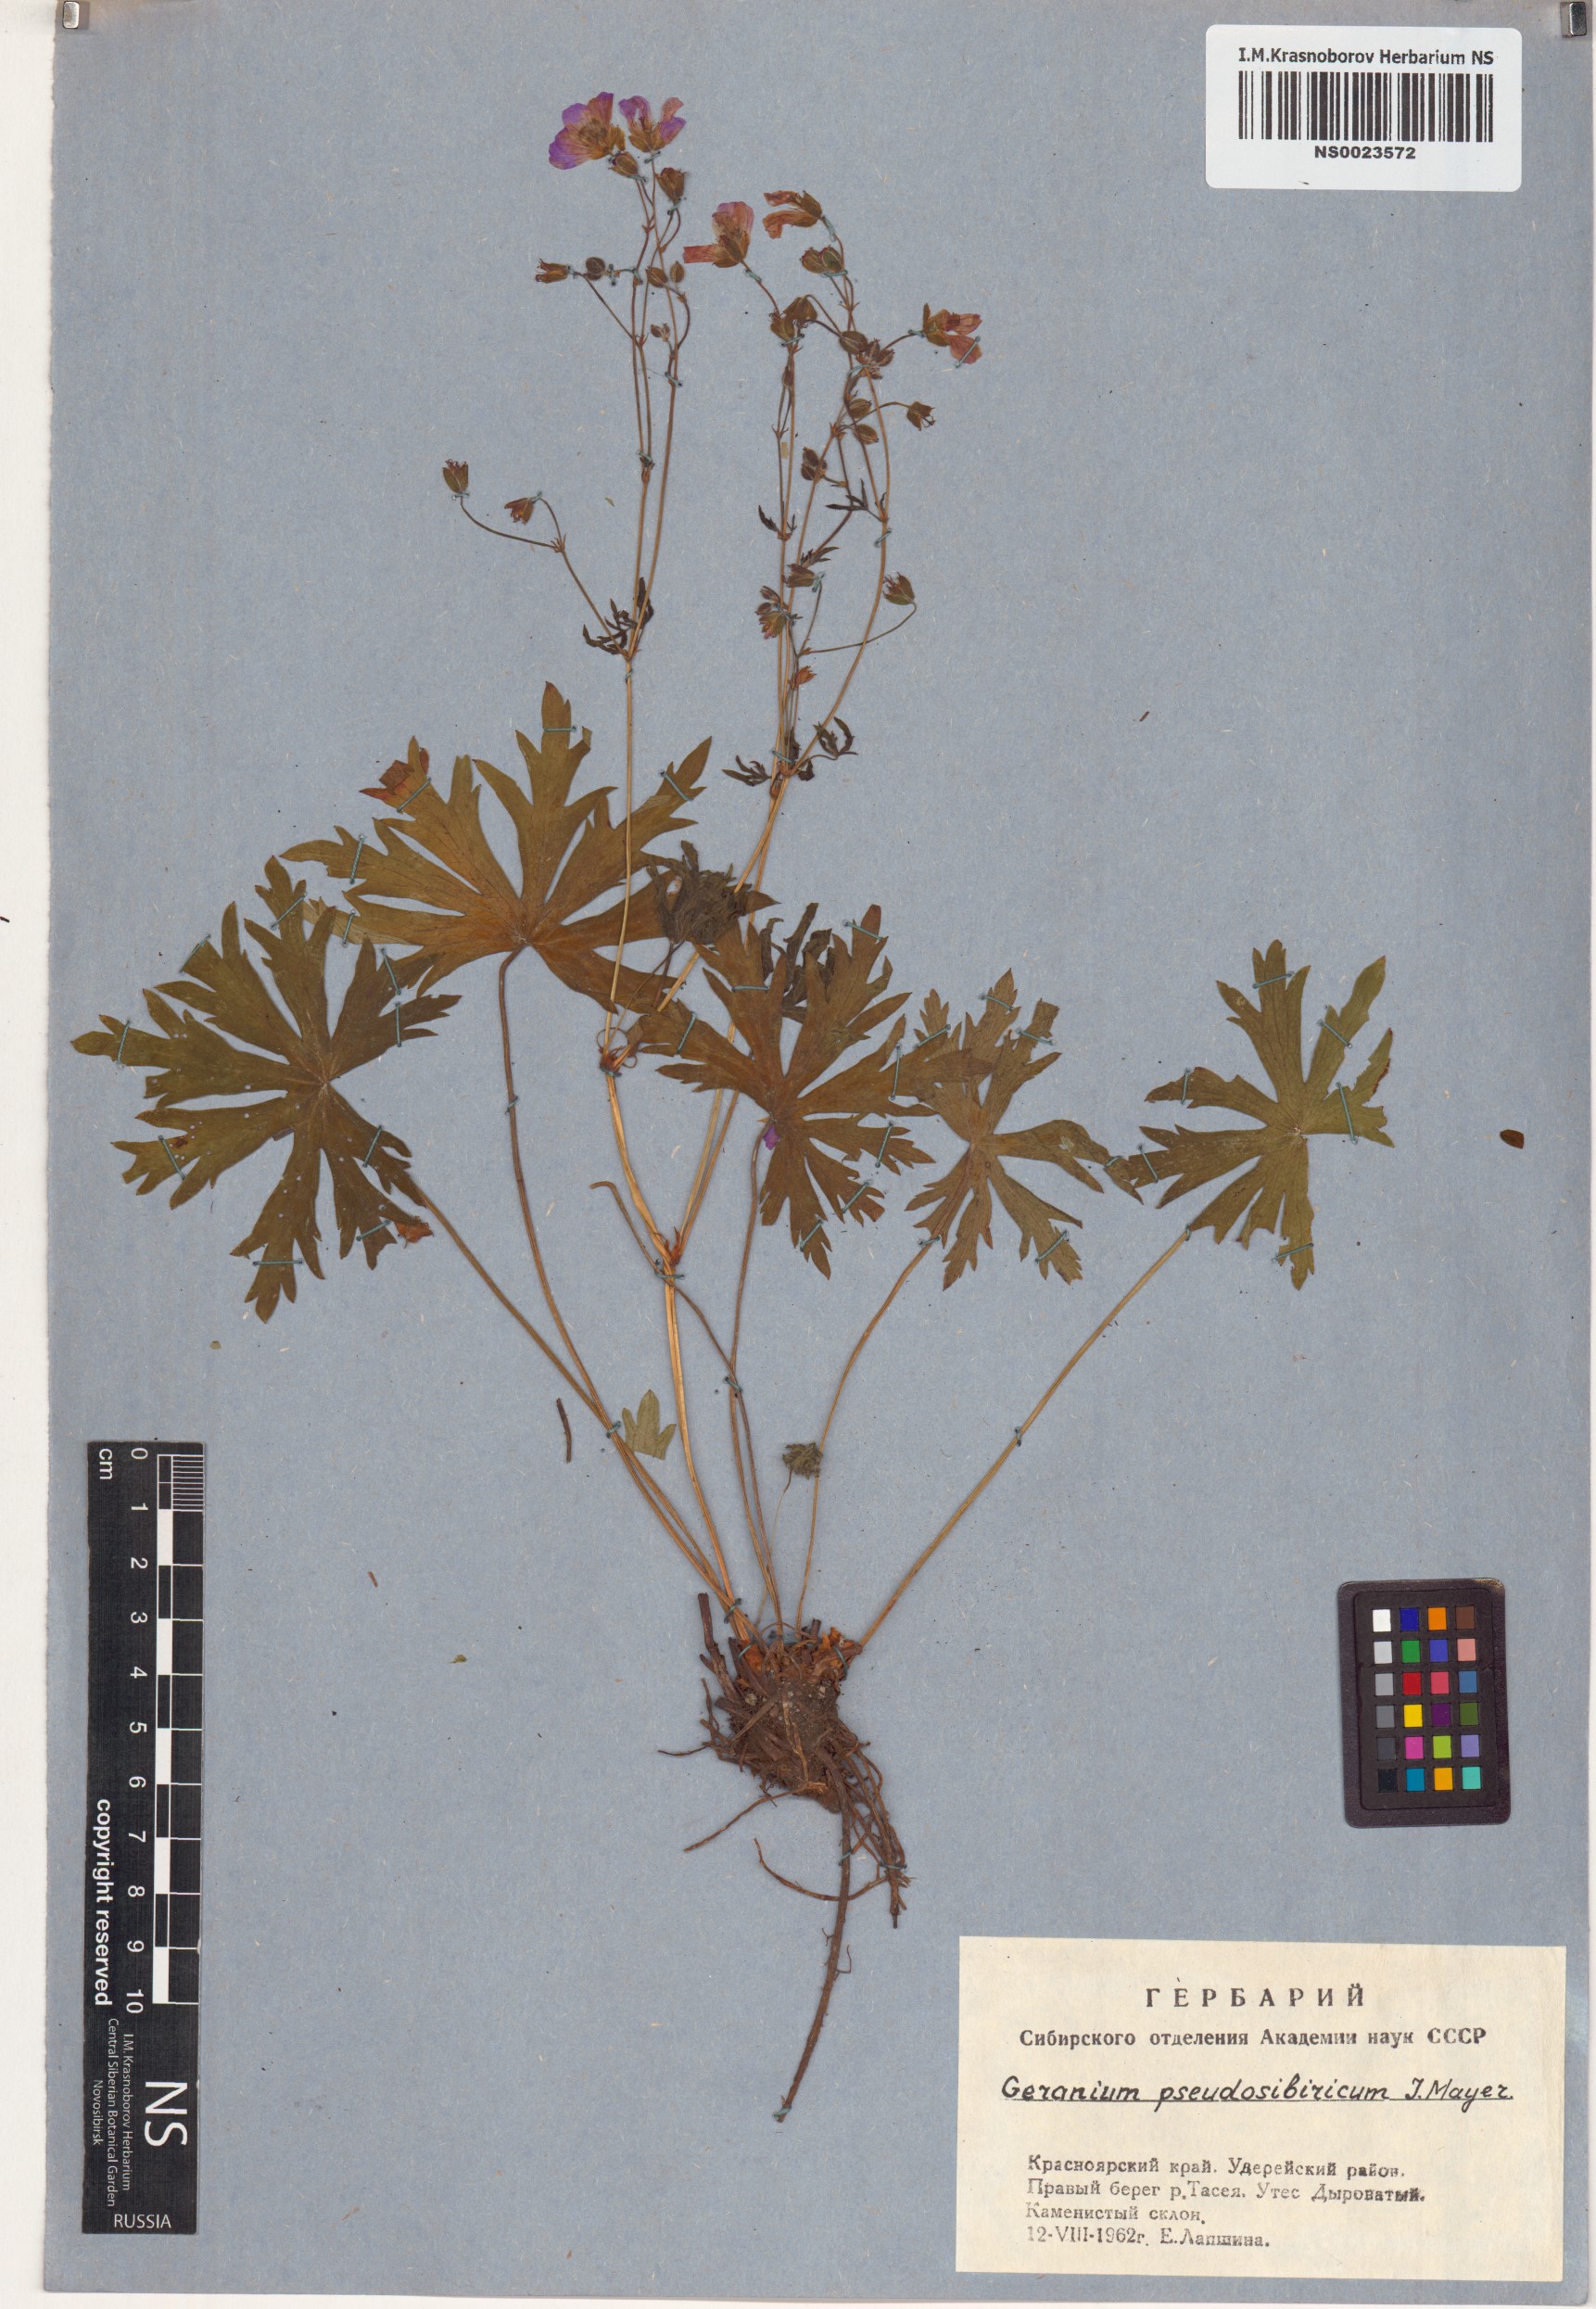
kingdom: Plantae
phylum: Tracheophyta
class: Magnoliopsida
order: Geraniales
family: Geraniaceae
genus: Geranium
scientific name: Geranium pseudosibiricum
